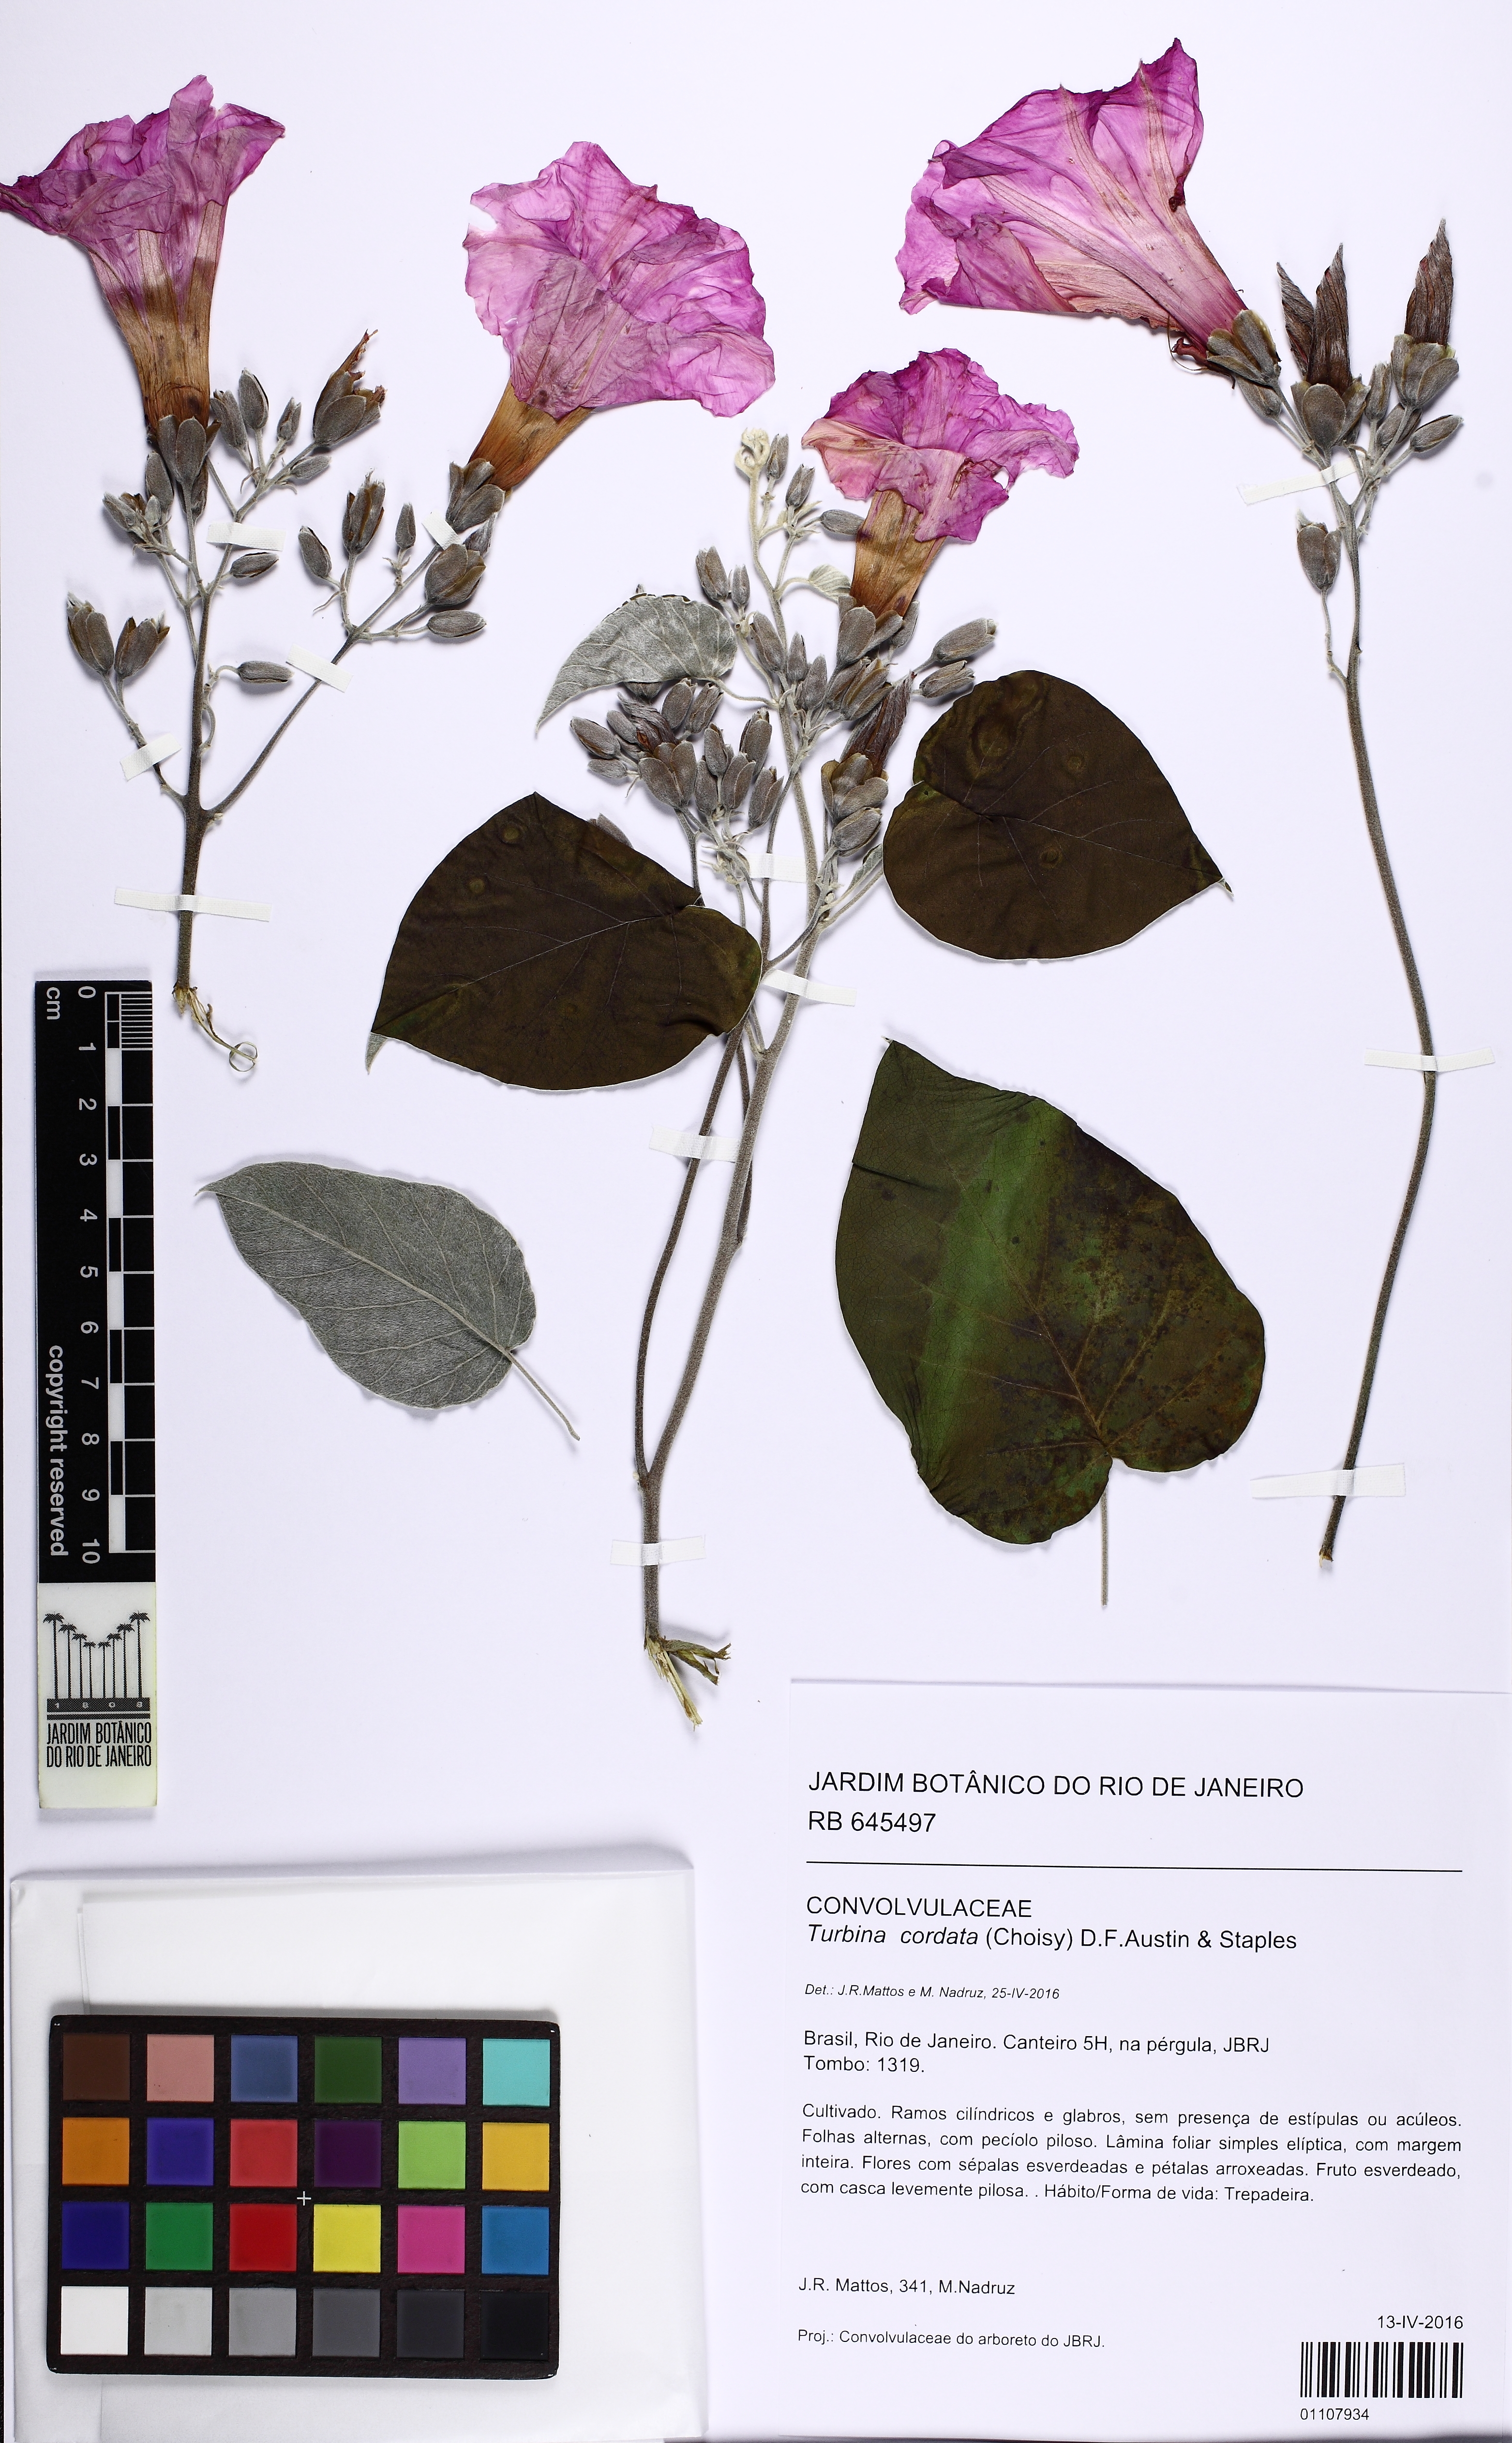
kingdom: Plantae
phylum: Tracheophyta
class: Magnoliopsida
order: Solanales
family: Convolvulaceae
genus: Ipomoea
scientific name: Ipomoea sericosepala
